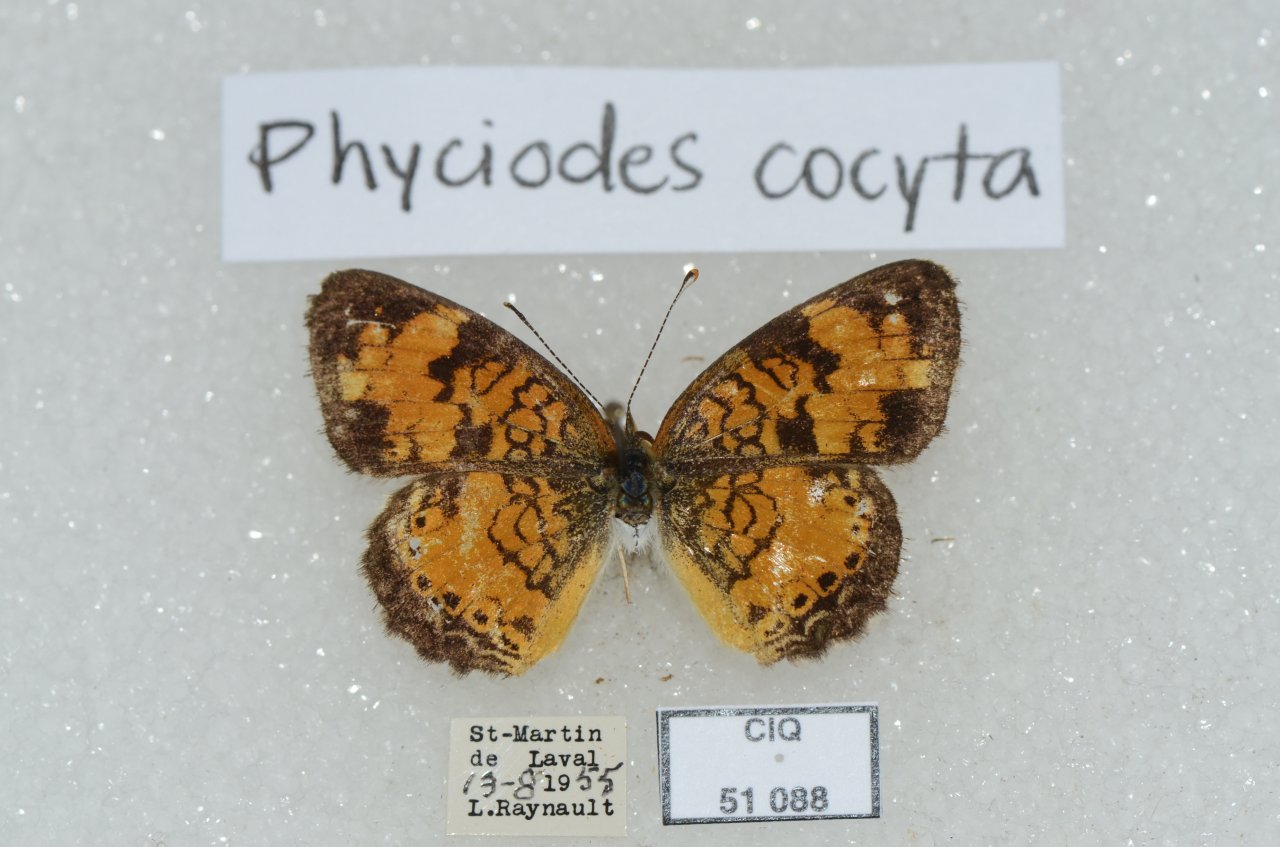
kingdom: Animalia
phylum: Arthropoda
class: Insecta
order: Lepidoptera
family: Nymphalidae
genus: Phyciodes
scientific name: Phyciodes tharos
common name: Northern Crescent
